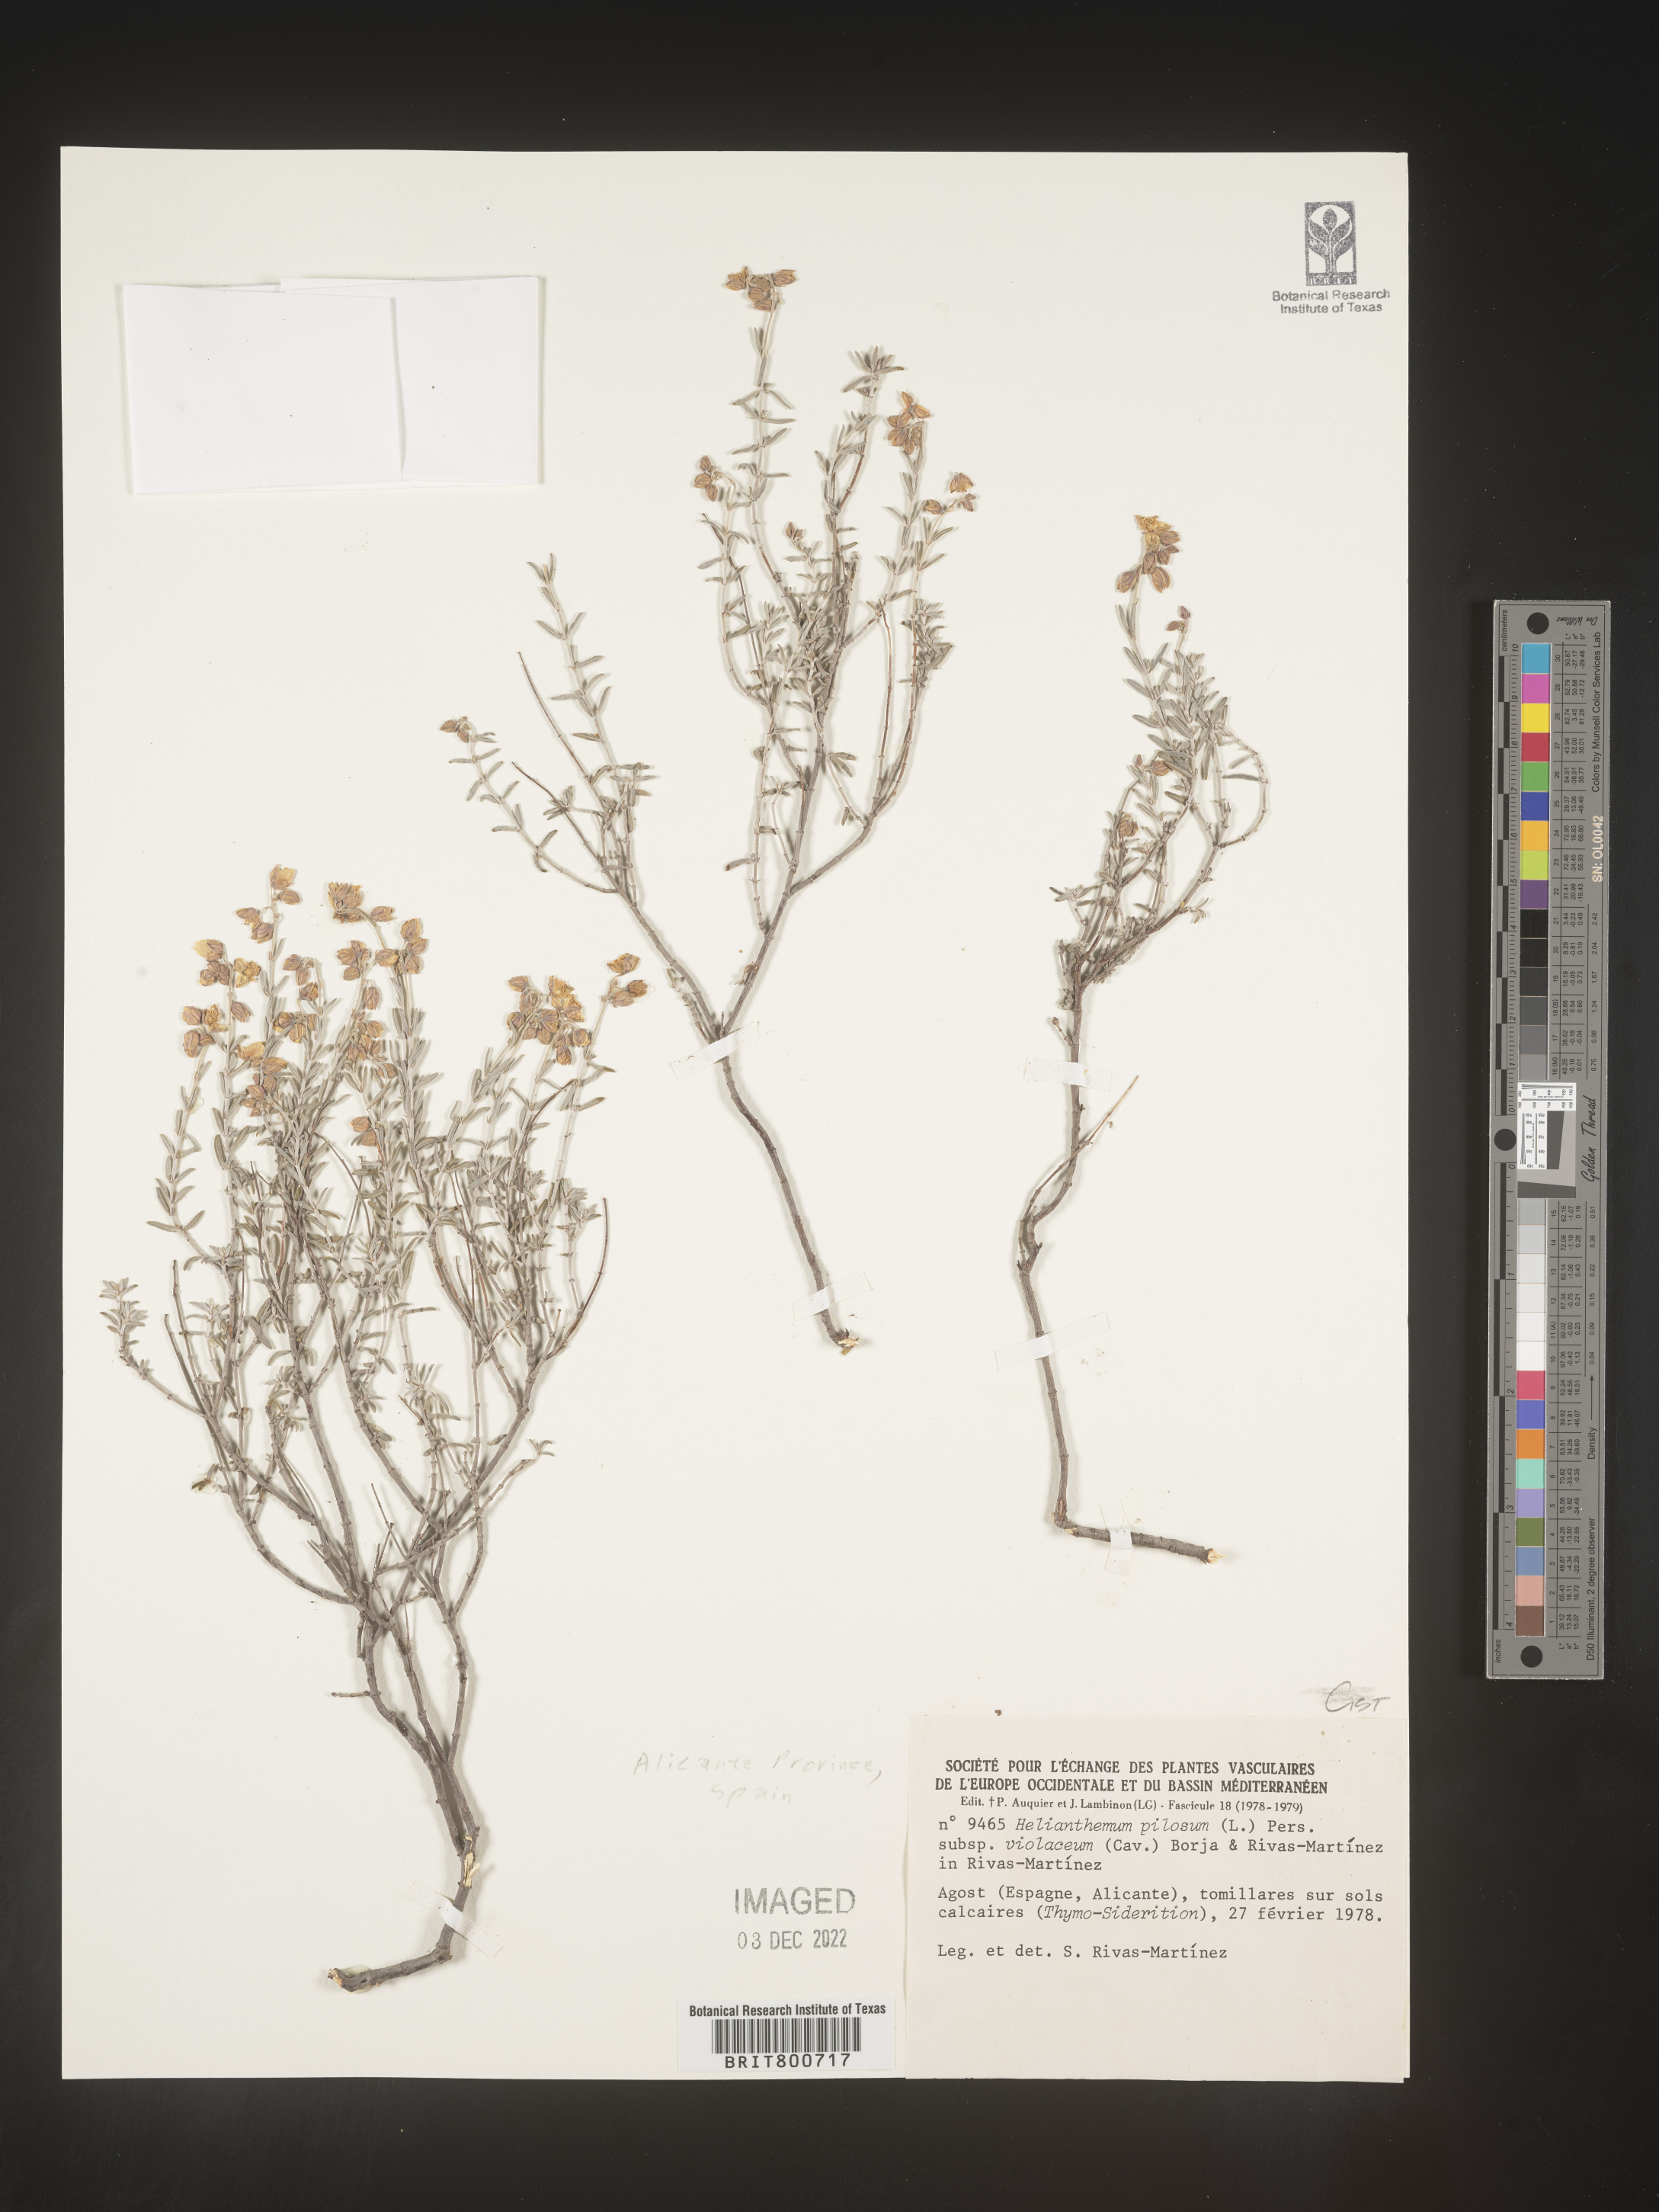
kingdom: Plantae
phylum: Tracheophyta
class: Magnoliopsida
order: Malvales
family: Cistaceae
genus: Helianthemum
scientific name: Helianthemum
